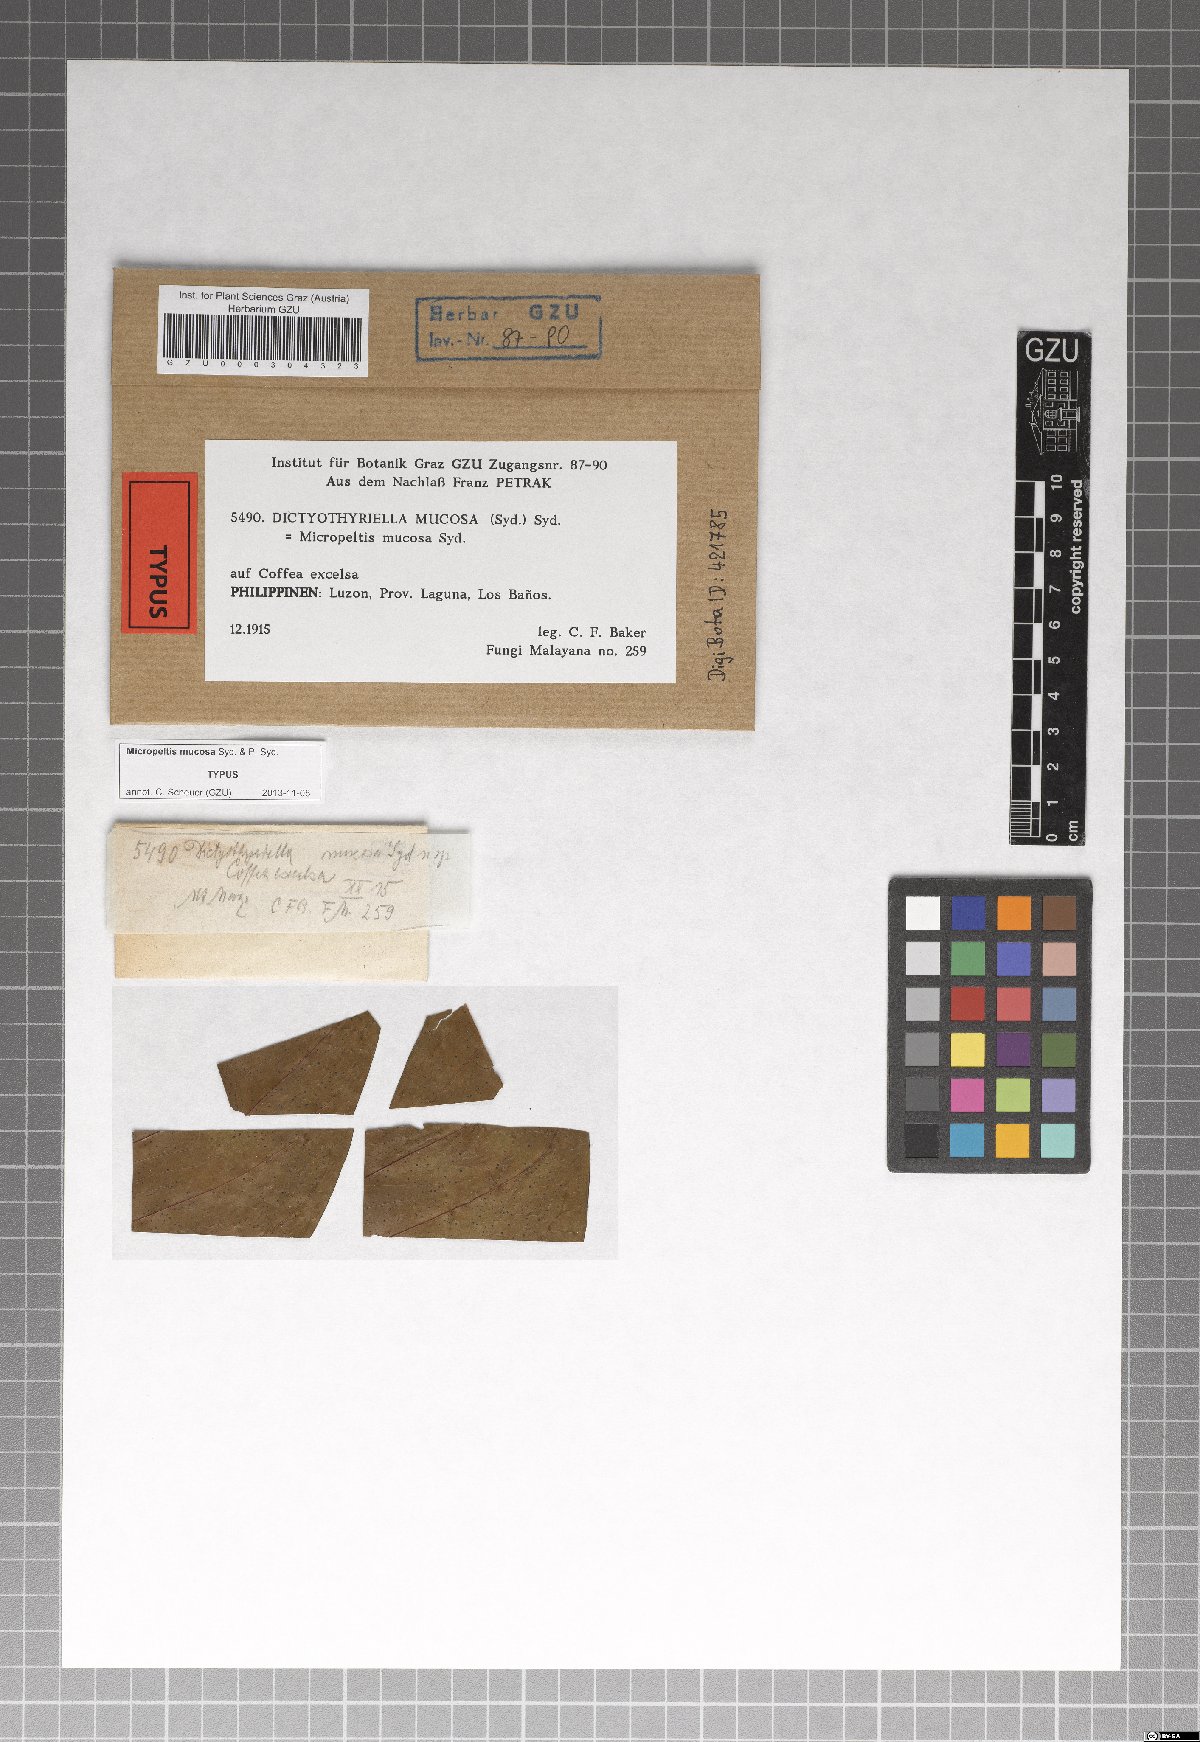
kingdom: Fungi
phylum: Ascomycota
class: Dothideomycetes
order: Microthyriales
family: Micropeltidaceae
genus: Dictyothyriella
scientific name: Dictyothyriella mucosa
